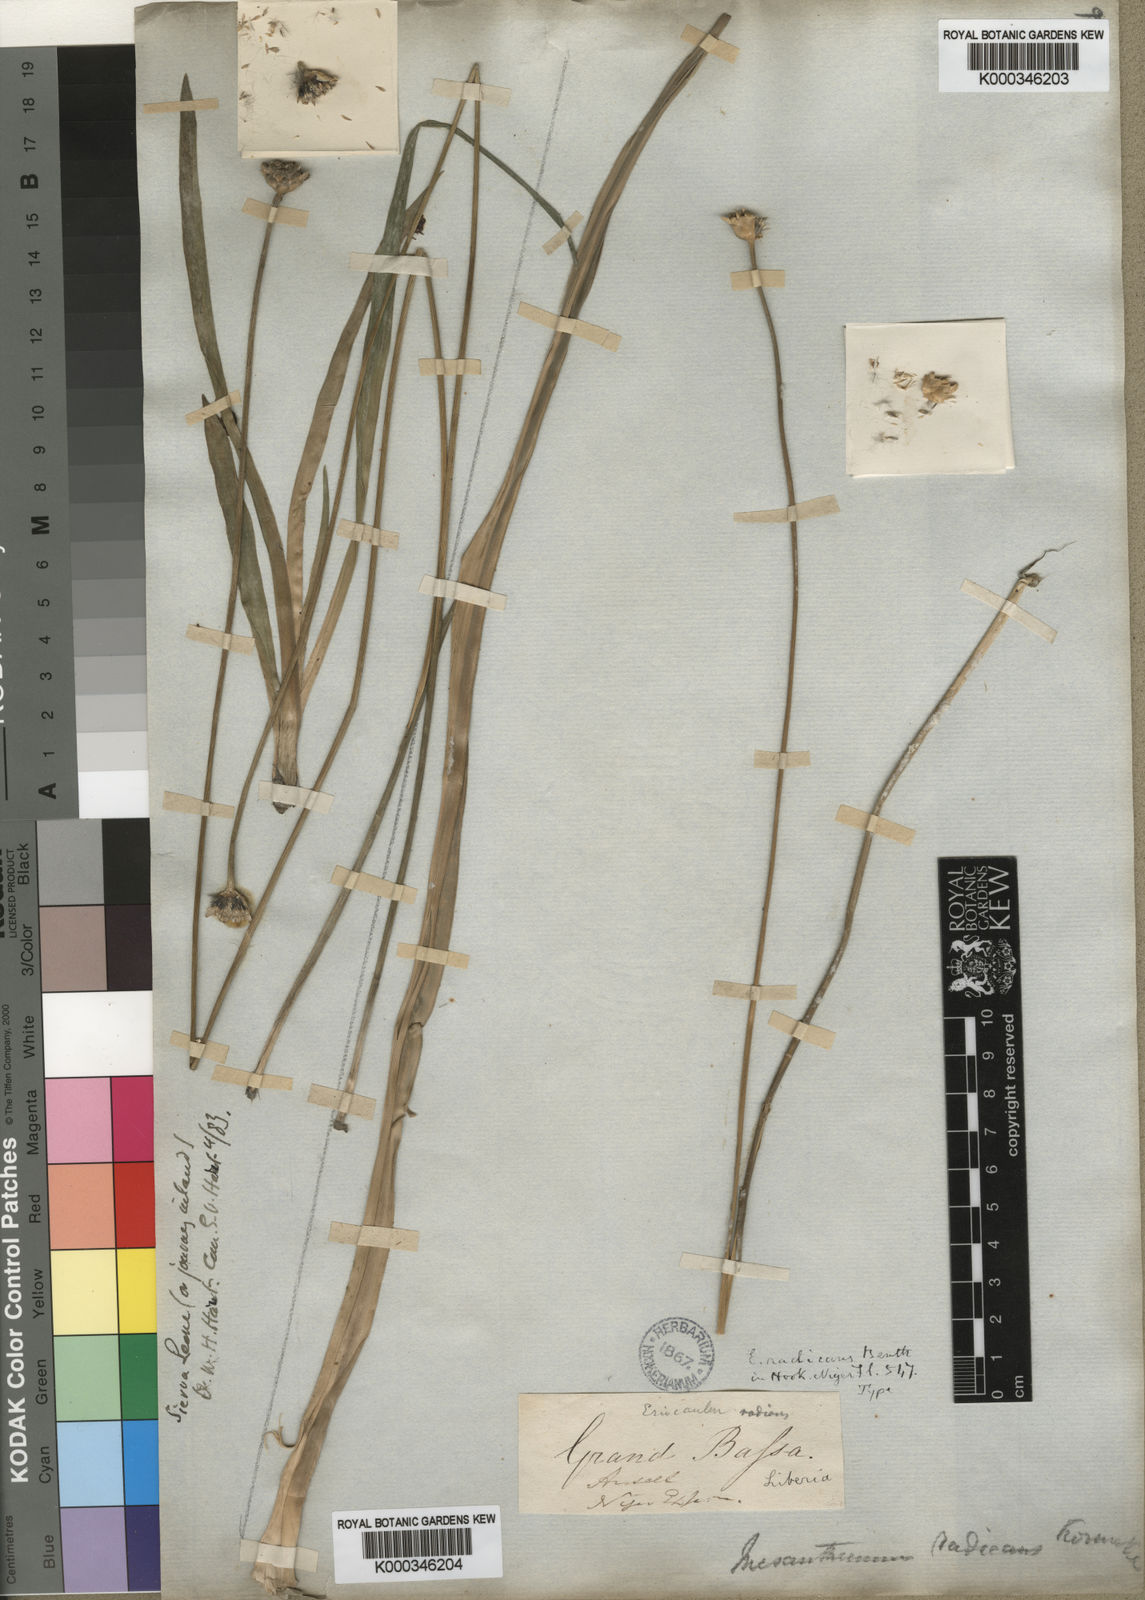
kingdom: Plantae
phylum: Tracheophyta
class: Liliopsida
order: Poales
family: Eriocaulaceae
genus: Mesanthemum
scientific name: Mesanthemum
